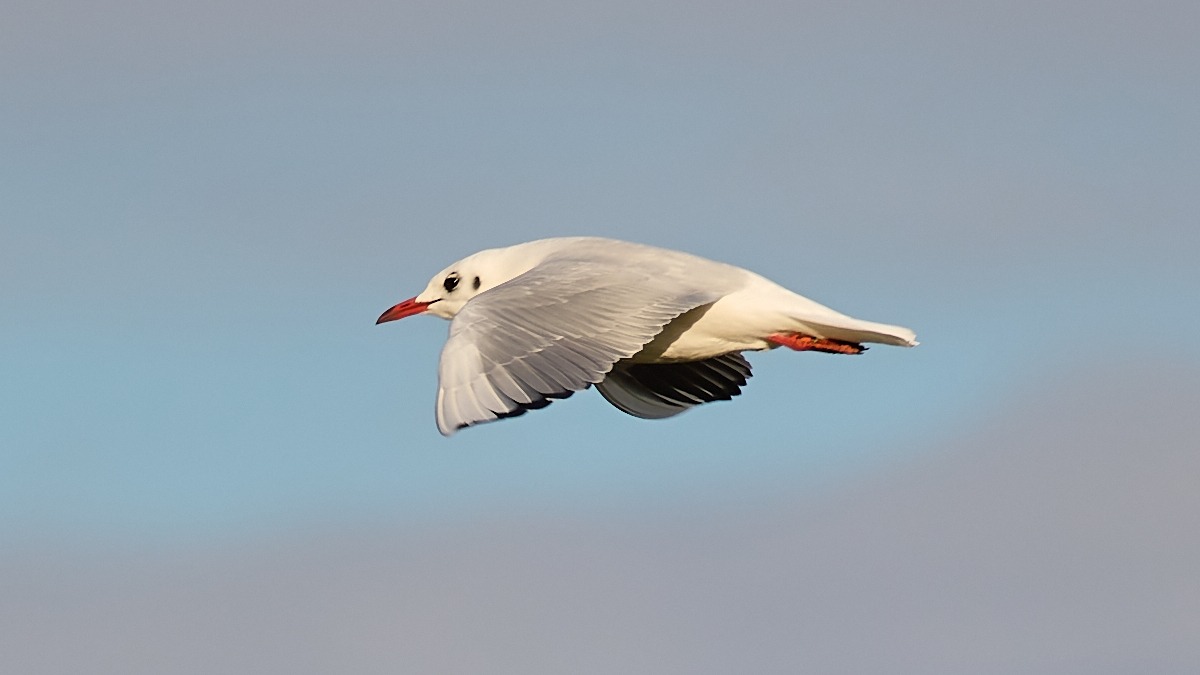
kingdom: Animalia
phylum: Chordata
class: Aves
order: Charadriiformes
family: Laridae
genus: Chroicocephalus
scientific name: Chroicocephalus ridibundus
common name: Hættemåge
